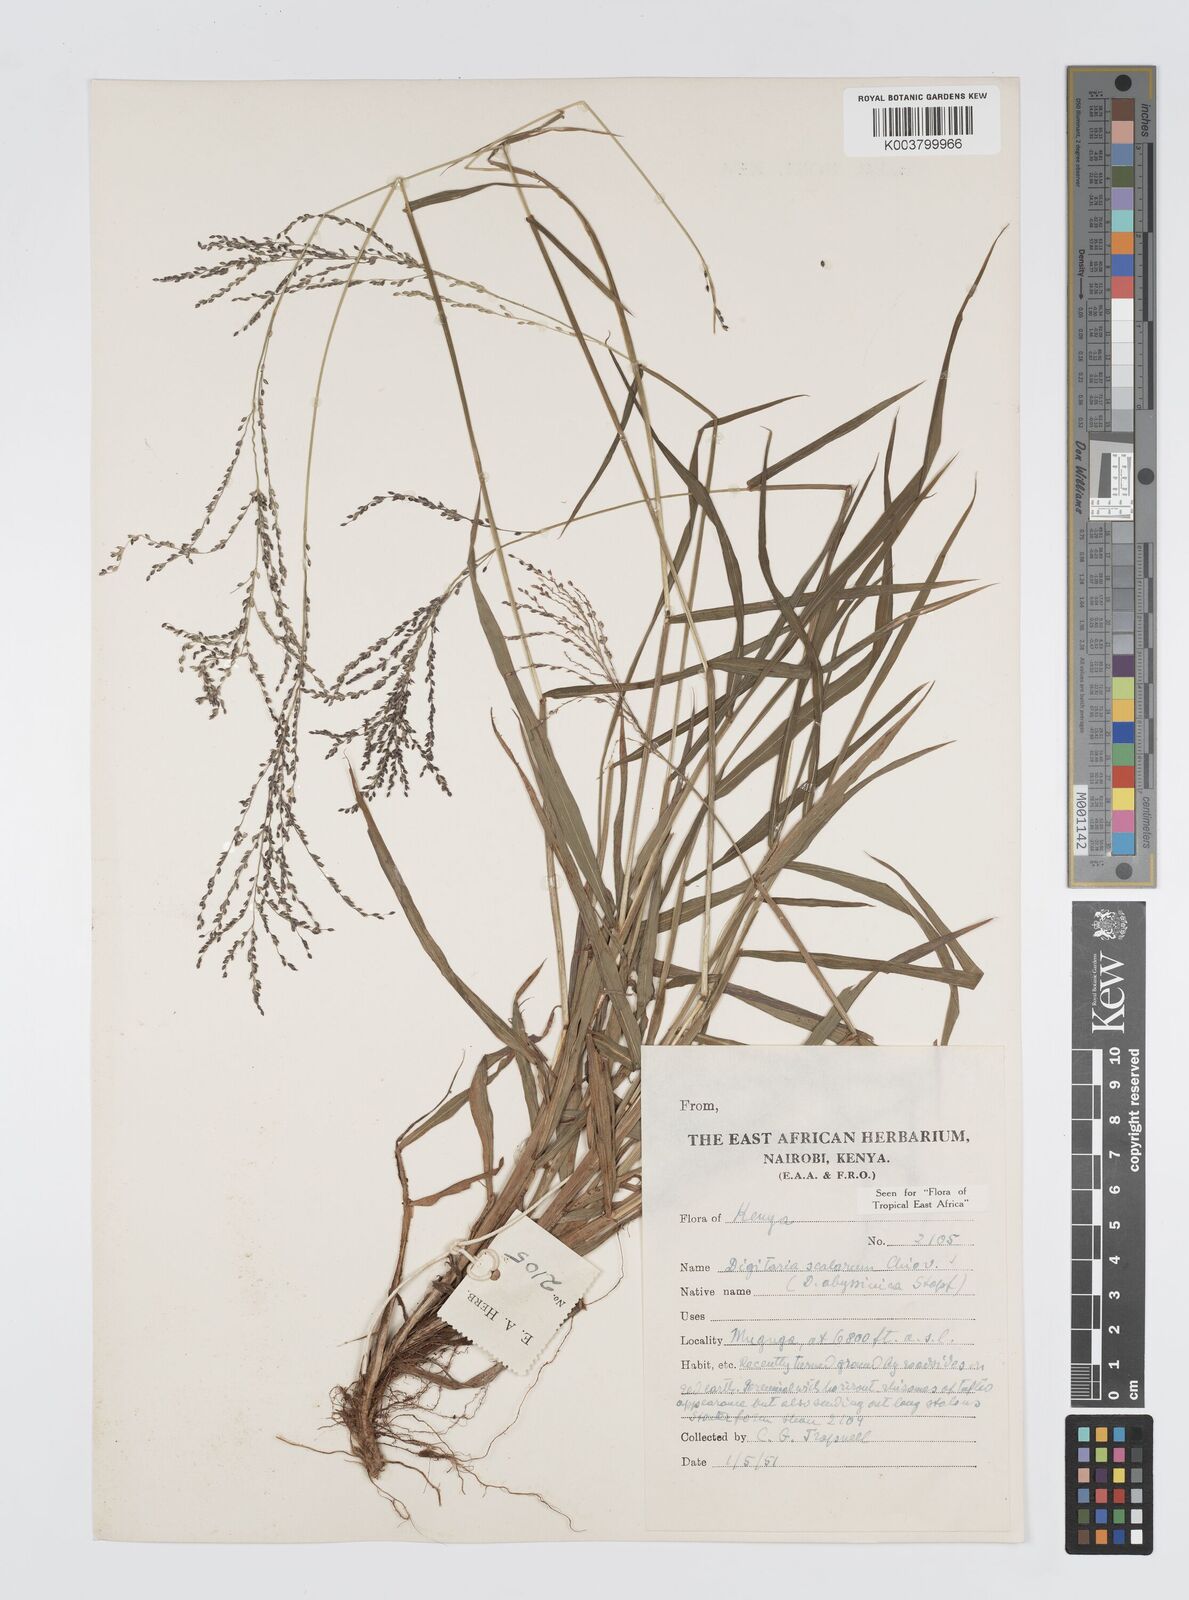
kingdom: Plantae
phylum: Tracheophyta
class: Liliopsida
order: Poales
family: Poaceae
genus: Digitaria
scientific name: Digitaria abyssinica
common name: African couchgrass
